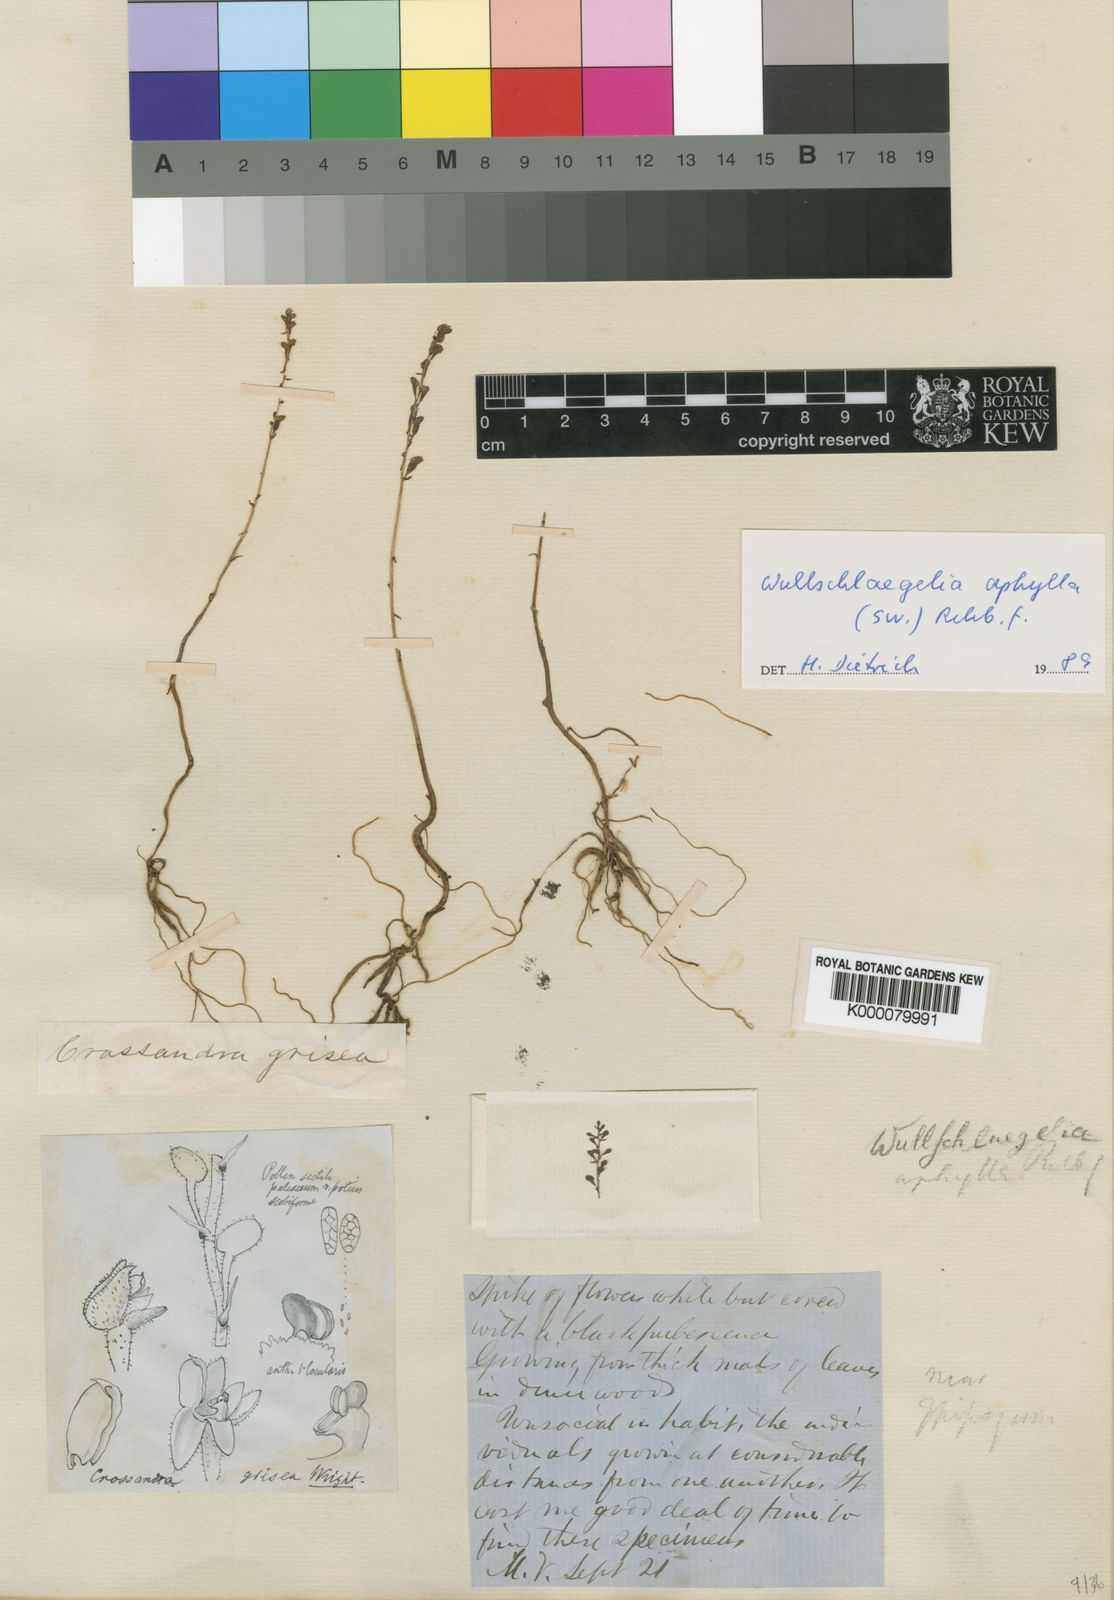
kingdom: Plantae
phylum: Tracheophyta
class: Liliopsida
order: Asparagales
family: Orchidaceae
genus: Wullschlaegelia
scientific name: Wullschlaegelia aphylla
